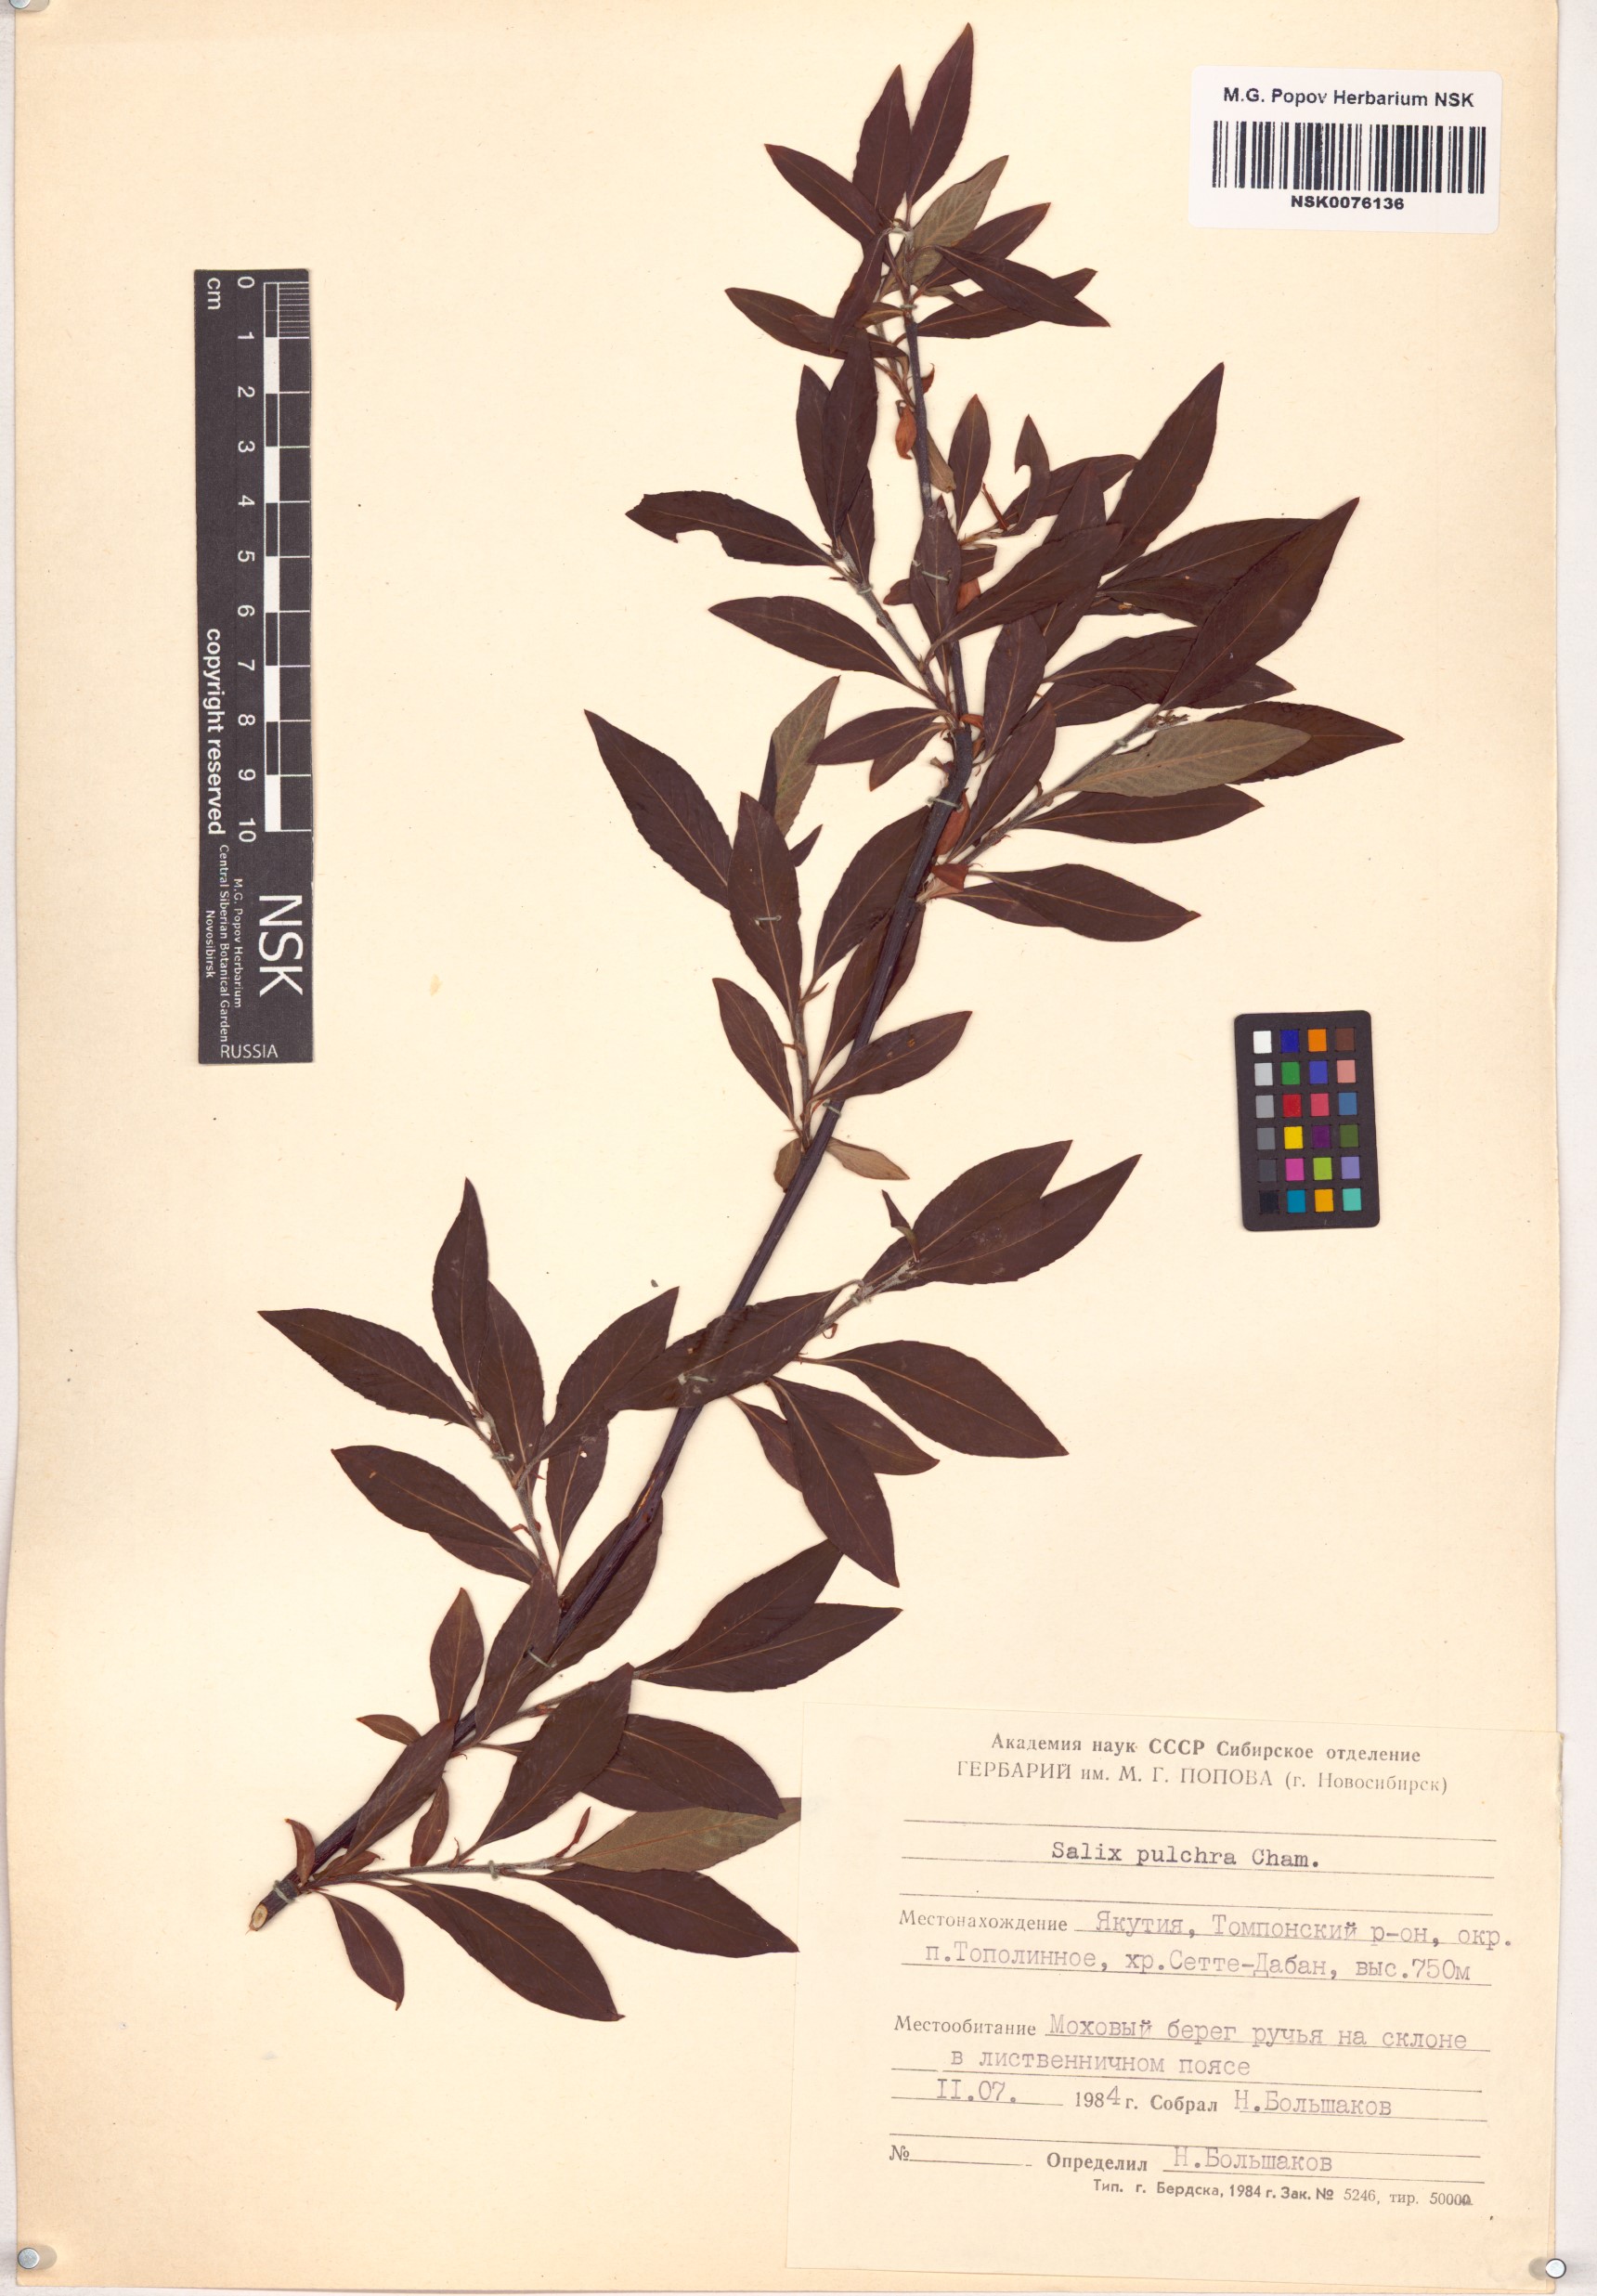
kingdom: Plantae
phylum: Tracheophyta
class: Magnoliopsida
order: Malpighiales
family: Salicaceae
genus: Salix
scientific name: Salix pulchra
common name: Diamond-leaved willow
